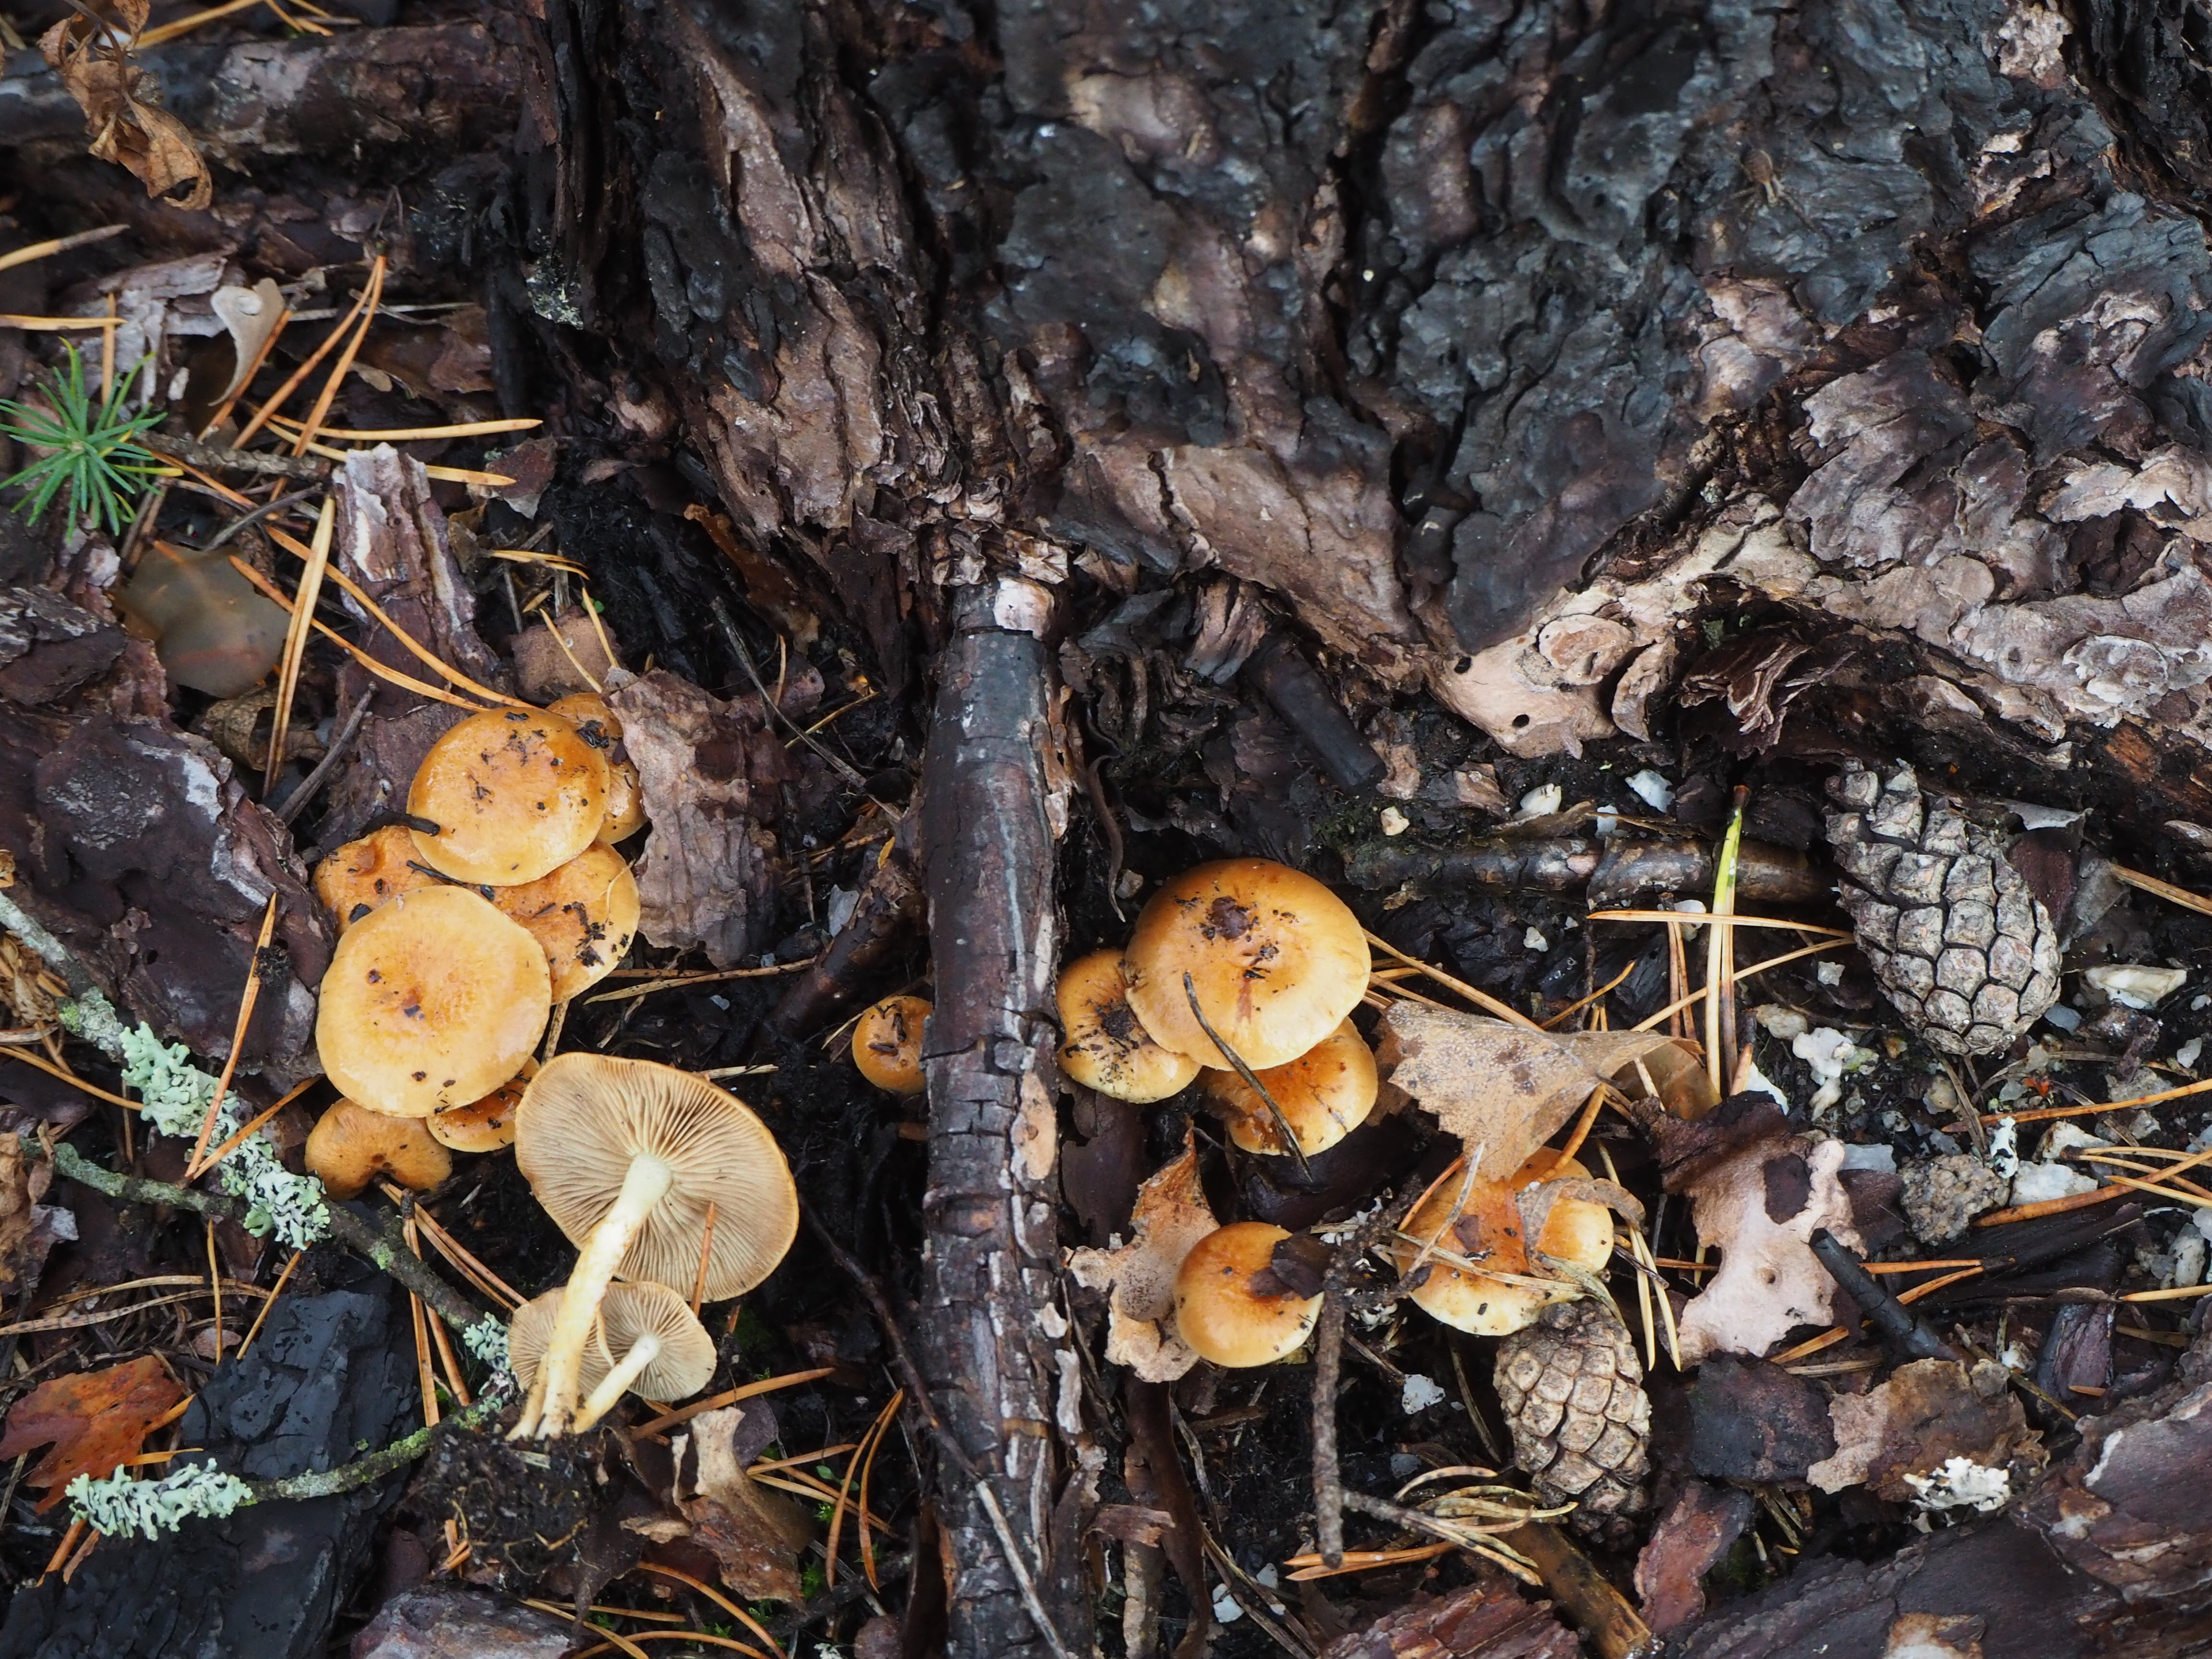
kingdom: Fungi
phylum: Basidiomycota
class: Agaricomycetes
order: Agaricales
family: Strophariaceae
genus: Pholiota
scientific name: Pholiota carbonaria
